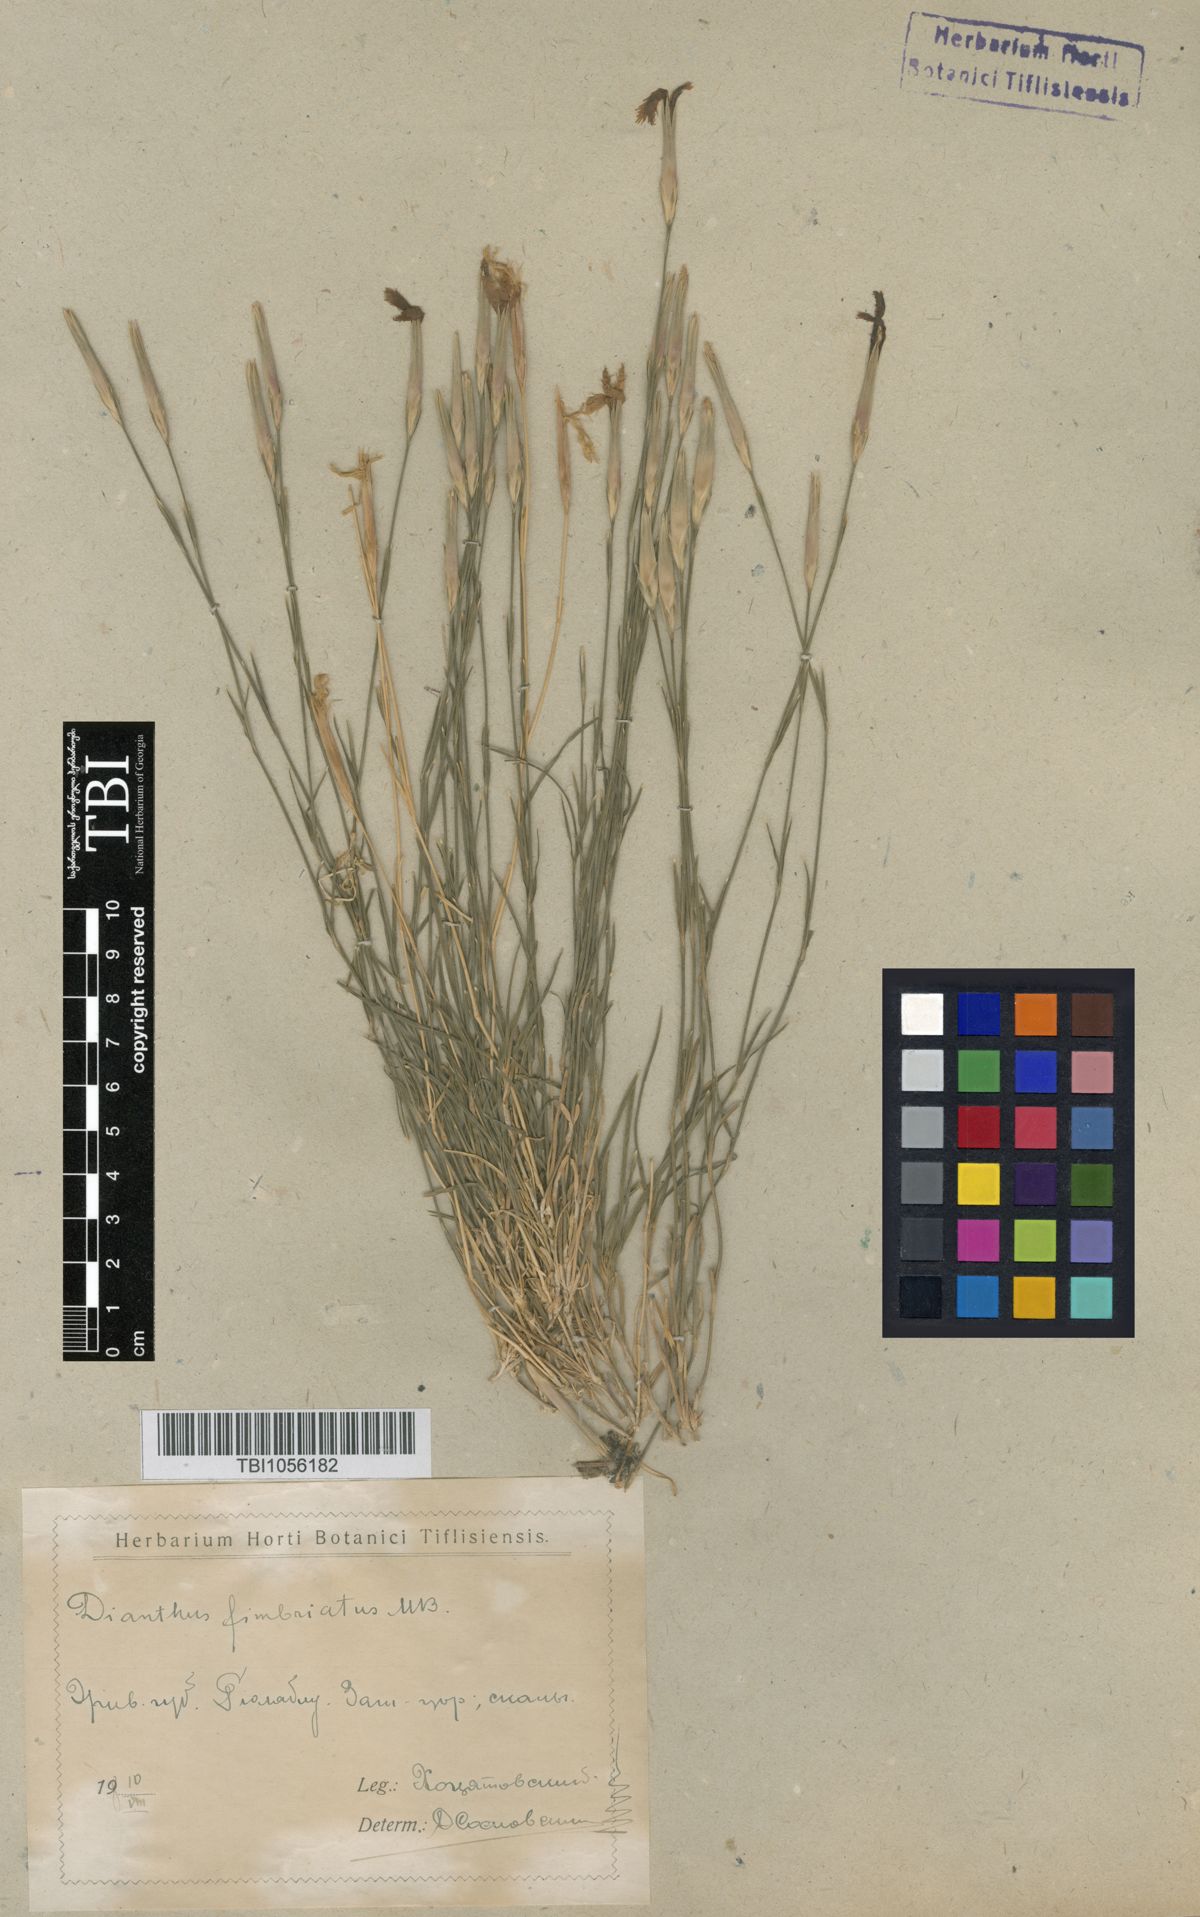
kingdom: Plantae
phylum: Tracheophyta
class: Magnoliopsida
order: Caryophyllales
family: Caryophyllaceae
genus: Dianthus
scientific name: Dianthus orientalis
